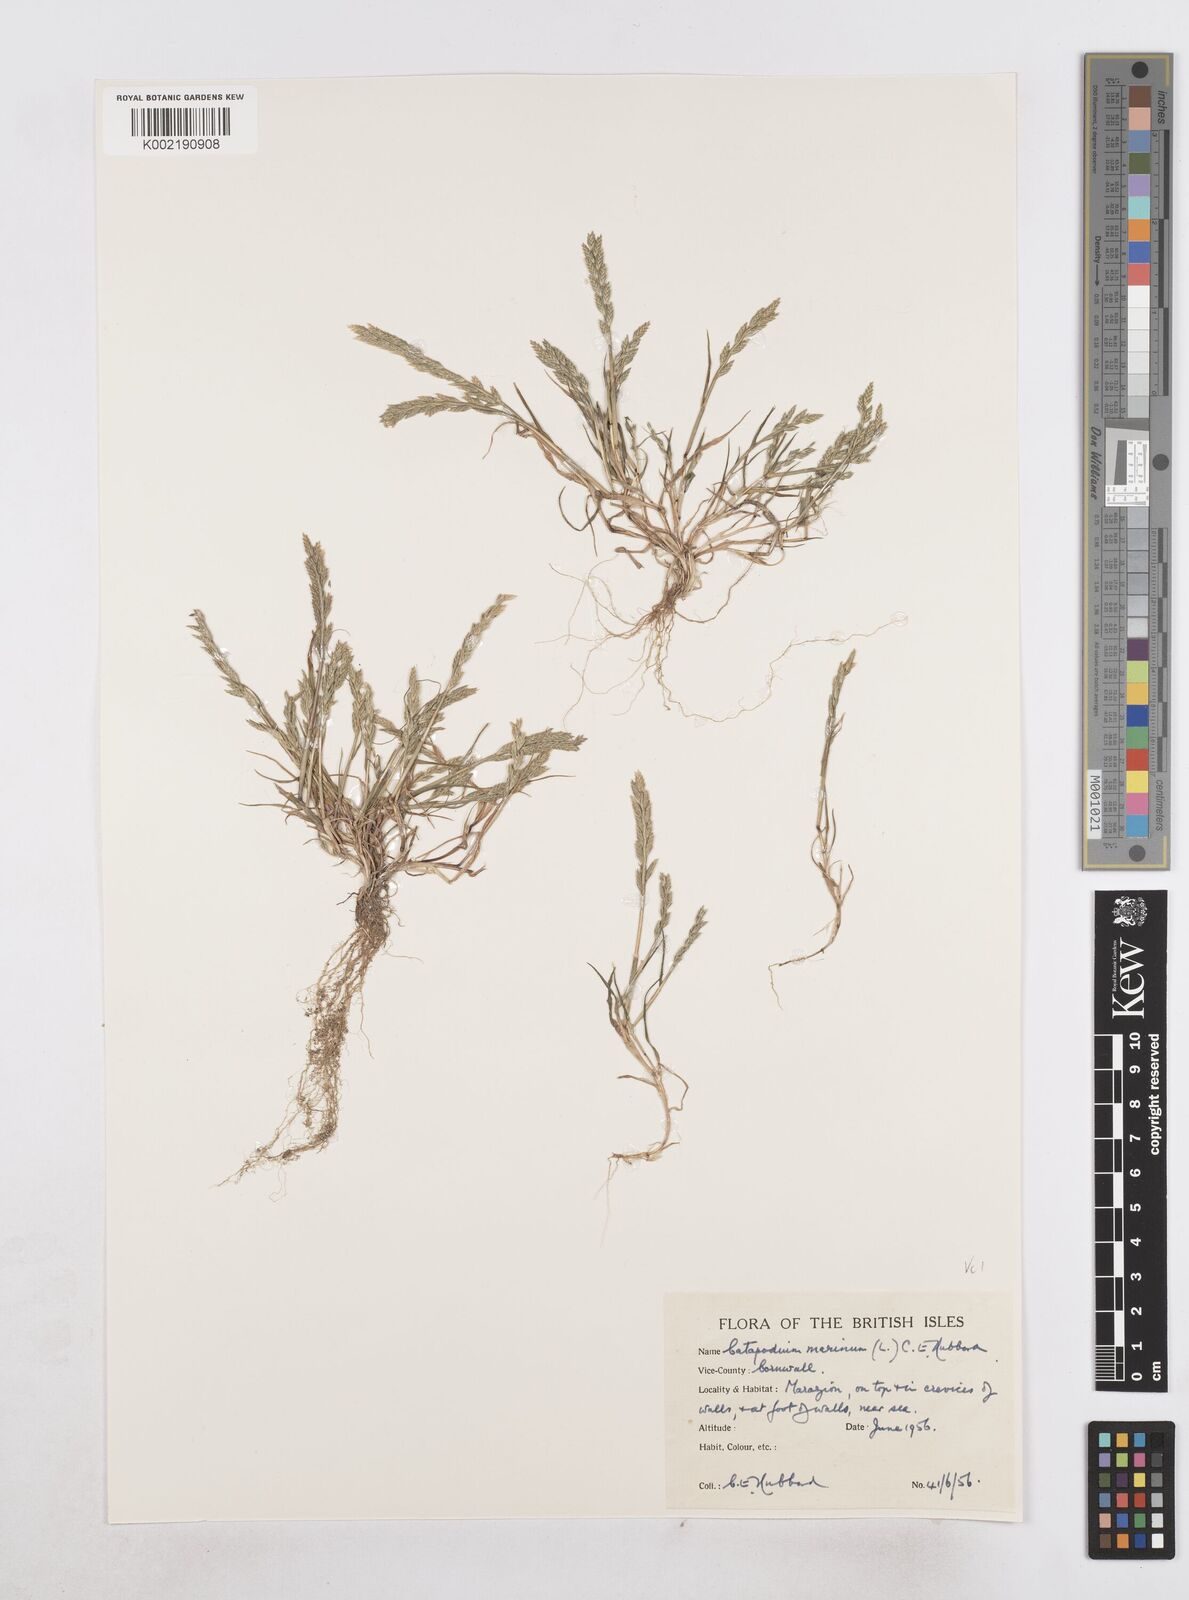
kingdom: Plantae
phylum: Tracheophyta
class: Liliopsida
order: Poales
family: Poaceae
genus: Catapodium
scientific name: Catapodium marinum
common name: Sea fern-grass
